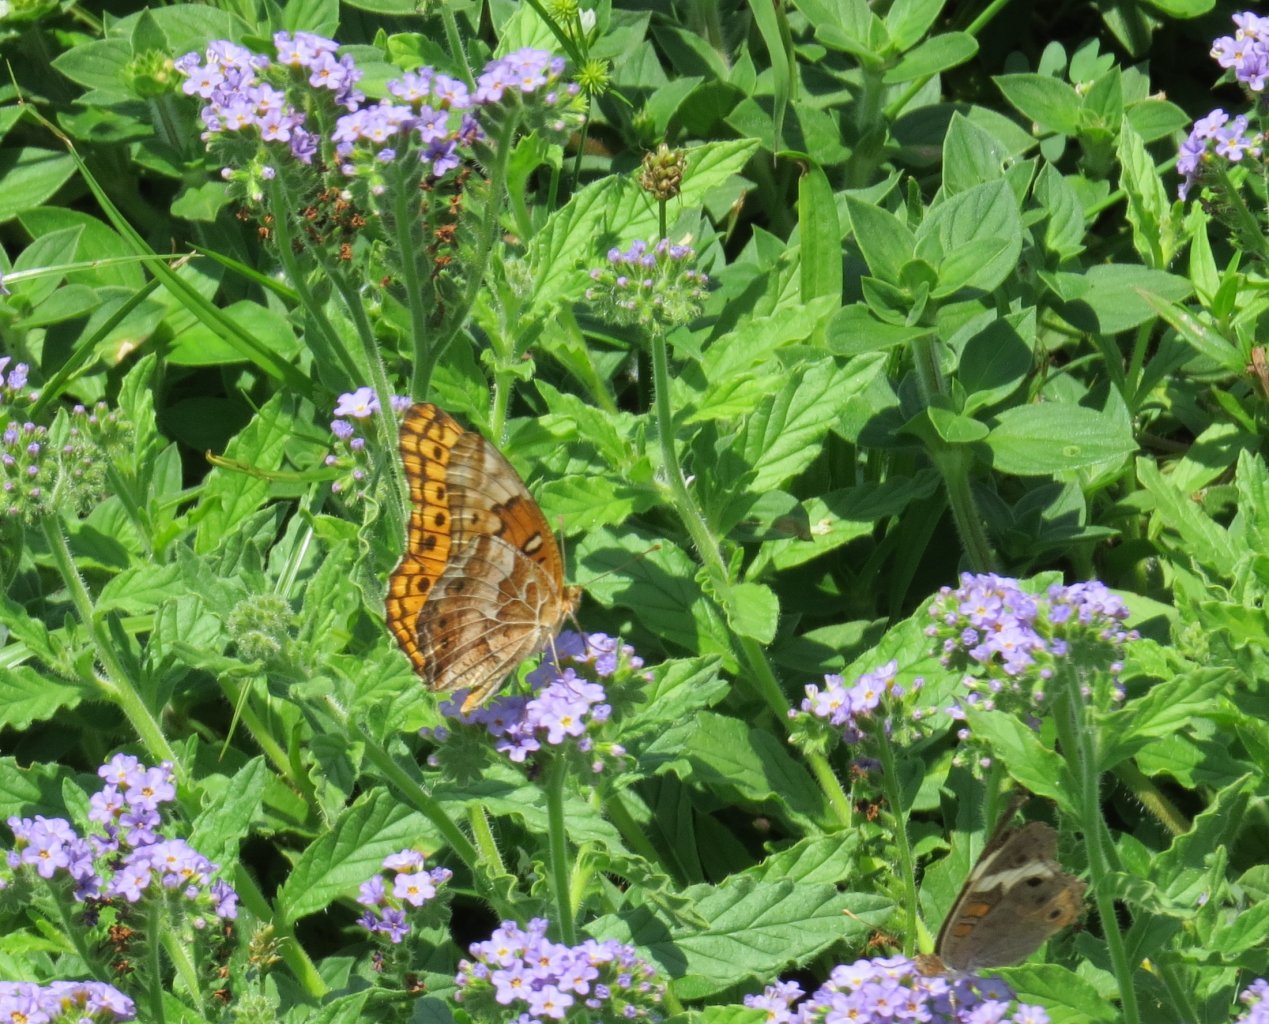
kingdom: Animalia
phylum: Arthropoda
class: Insecta
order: Lepidoptera
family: Nymphalidae
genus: Euptoieta
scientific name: Euptoieta claudia
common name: Variegated Fritillary
